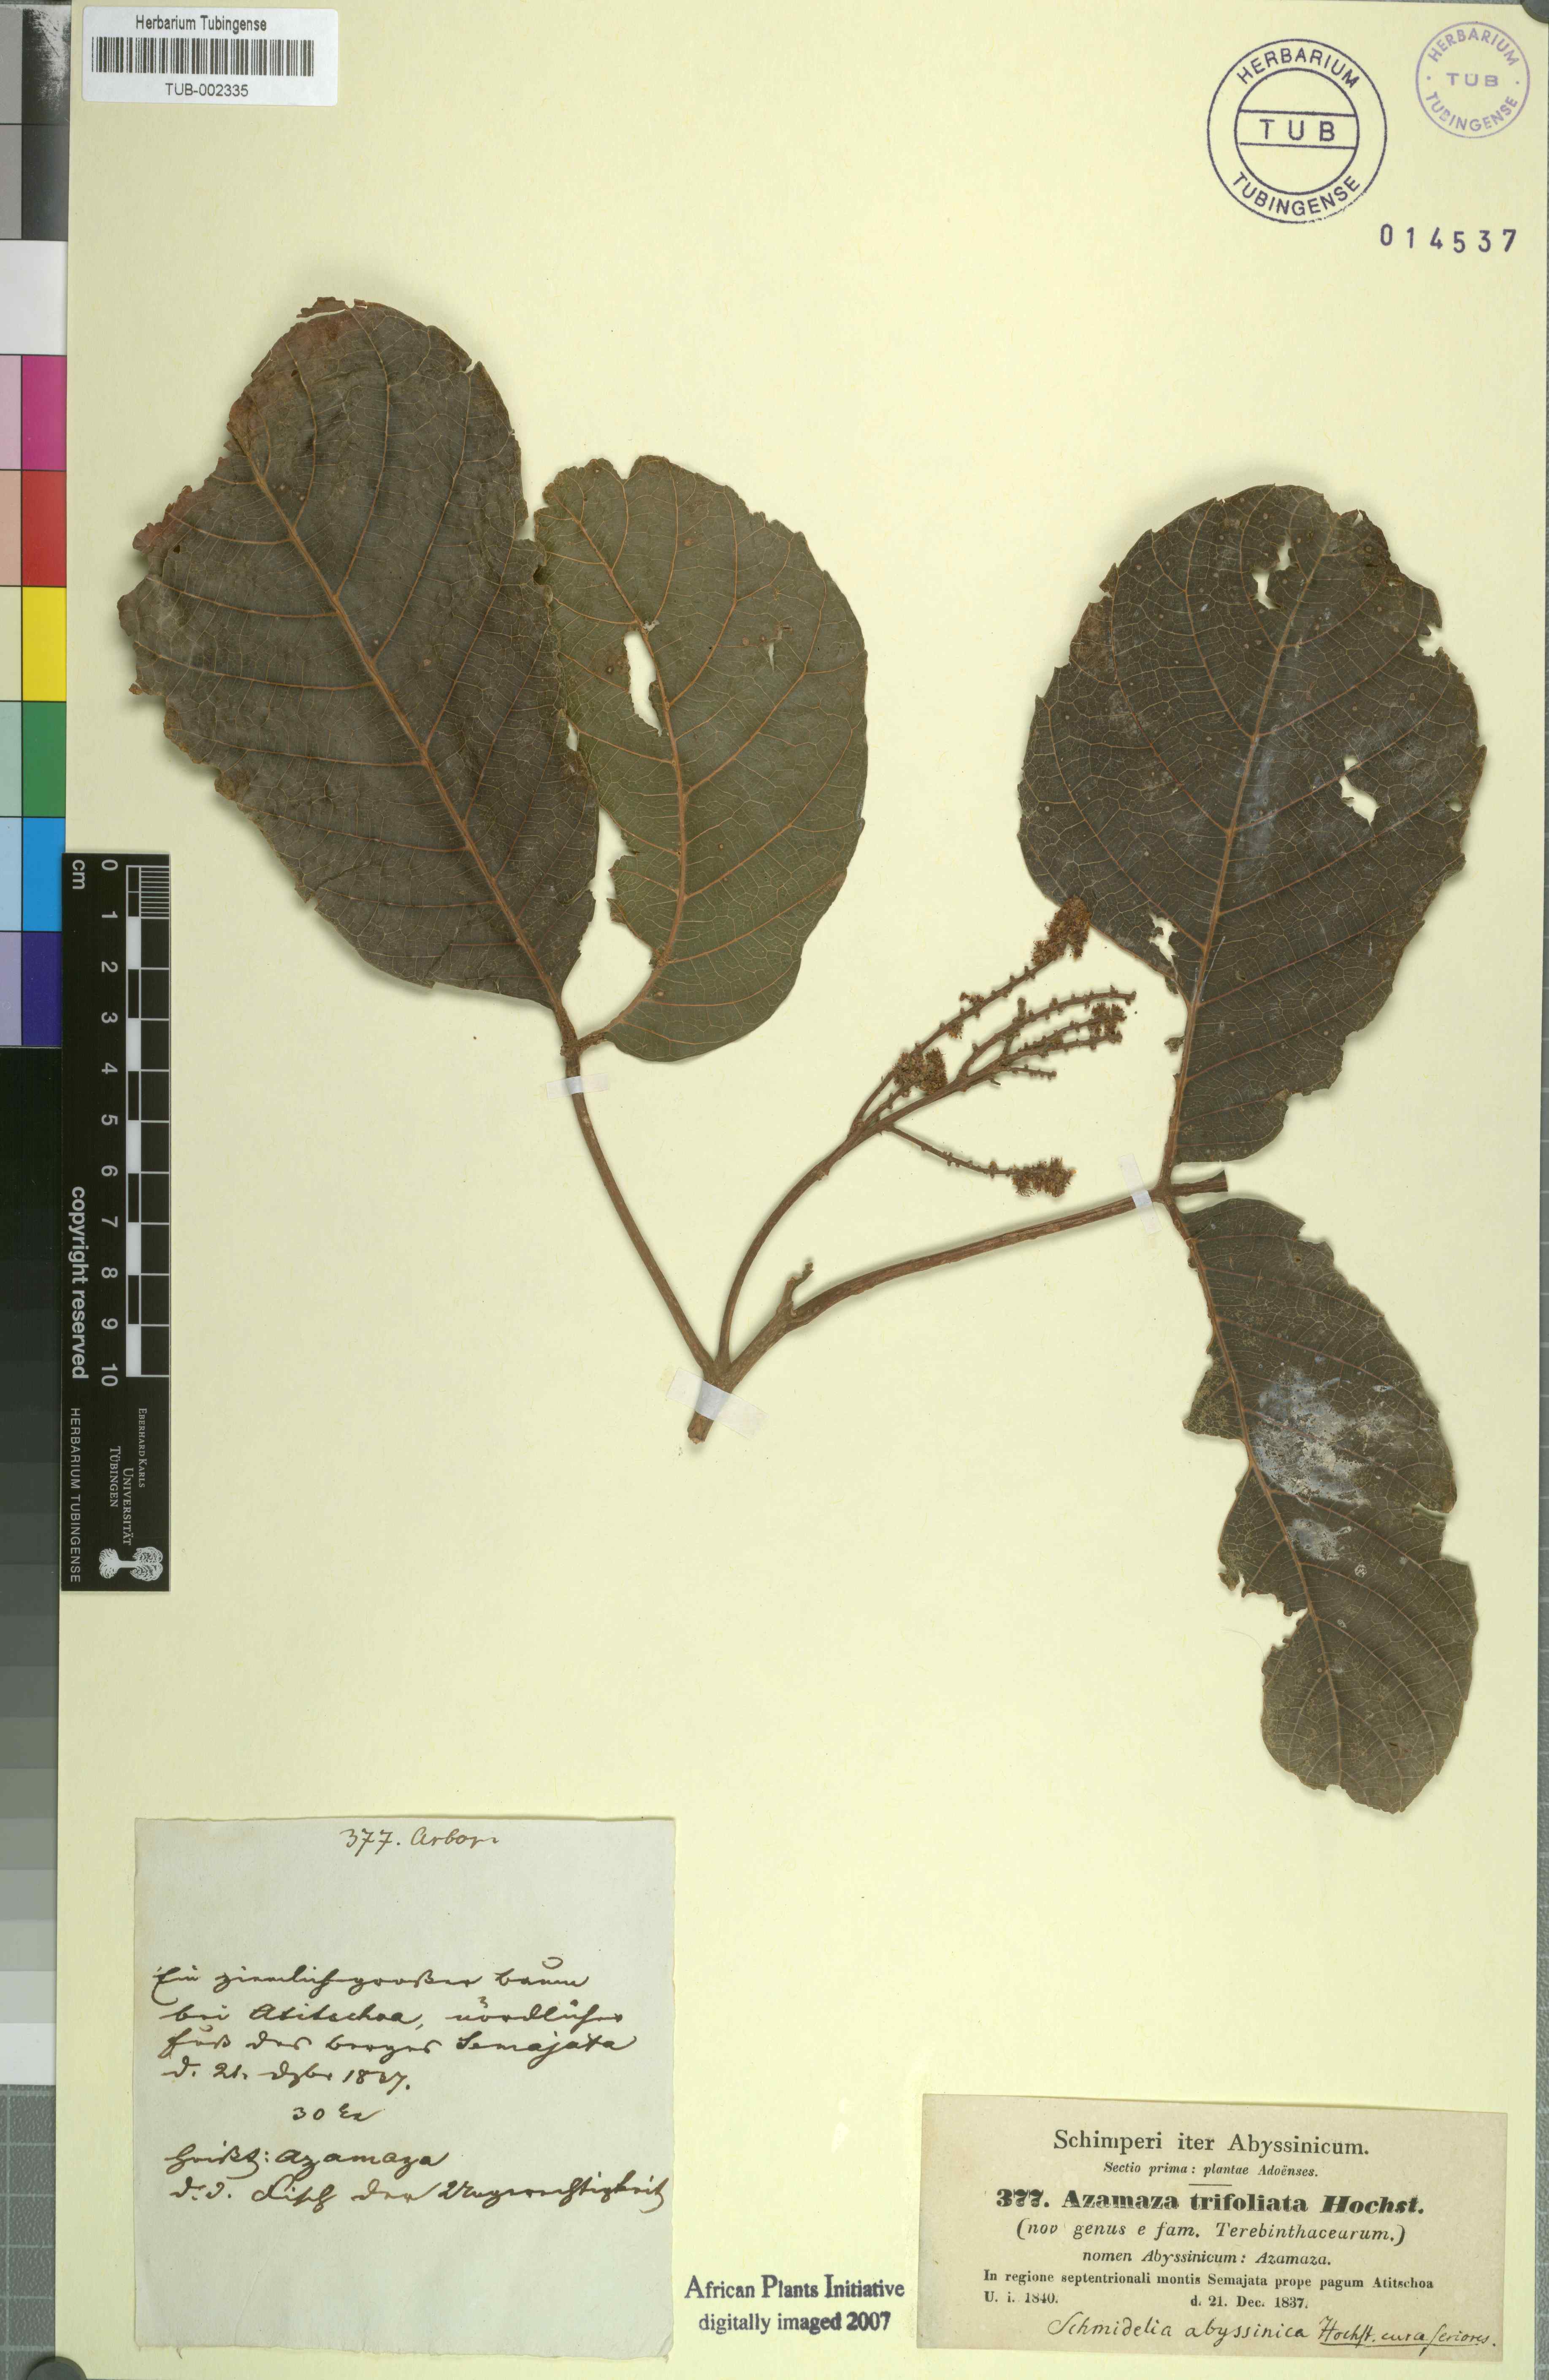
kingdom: Plantae
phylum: Tracheophyta
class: Magnoliopsida
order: Sapindales
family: Sapindaceae
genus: Allophylus
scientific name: Allophylus zeylanicus
